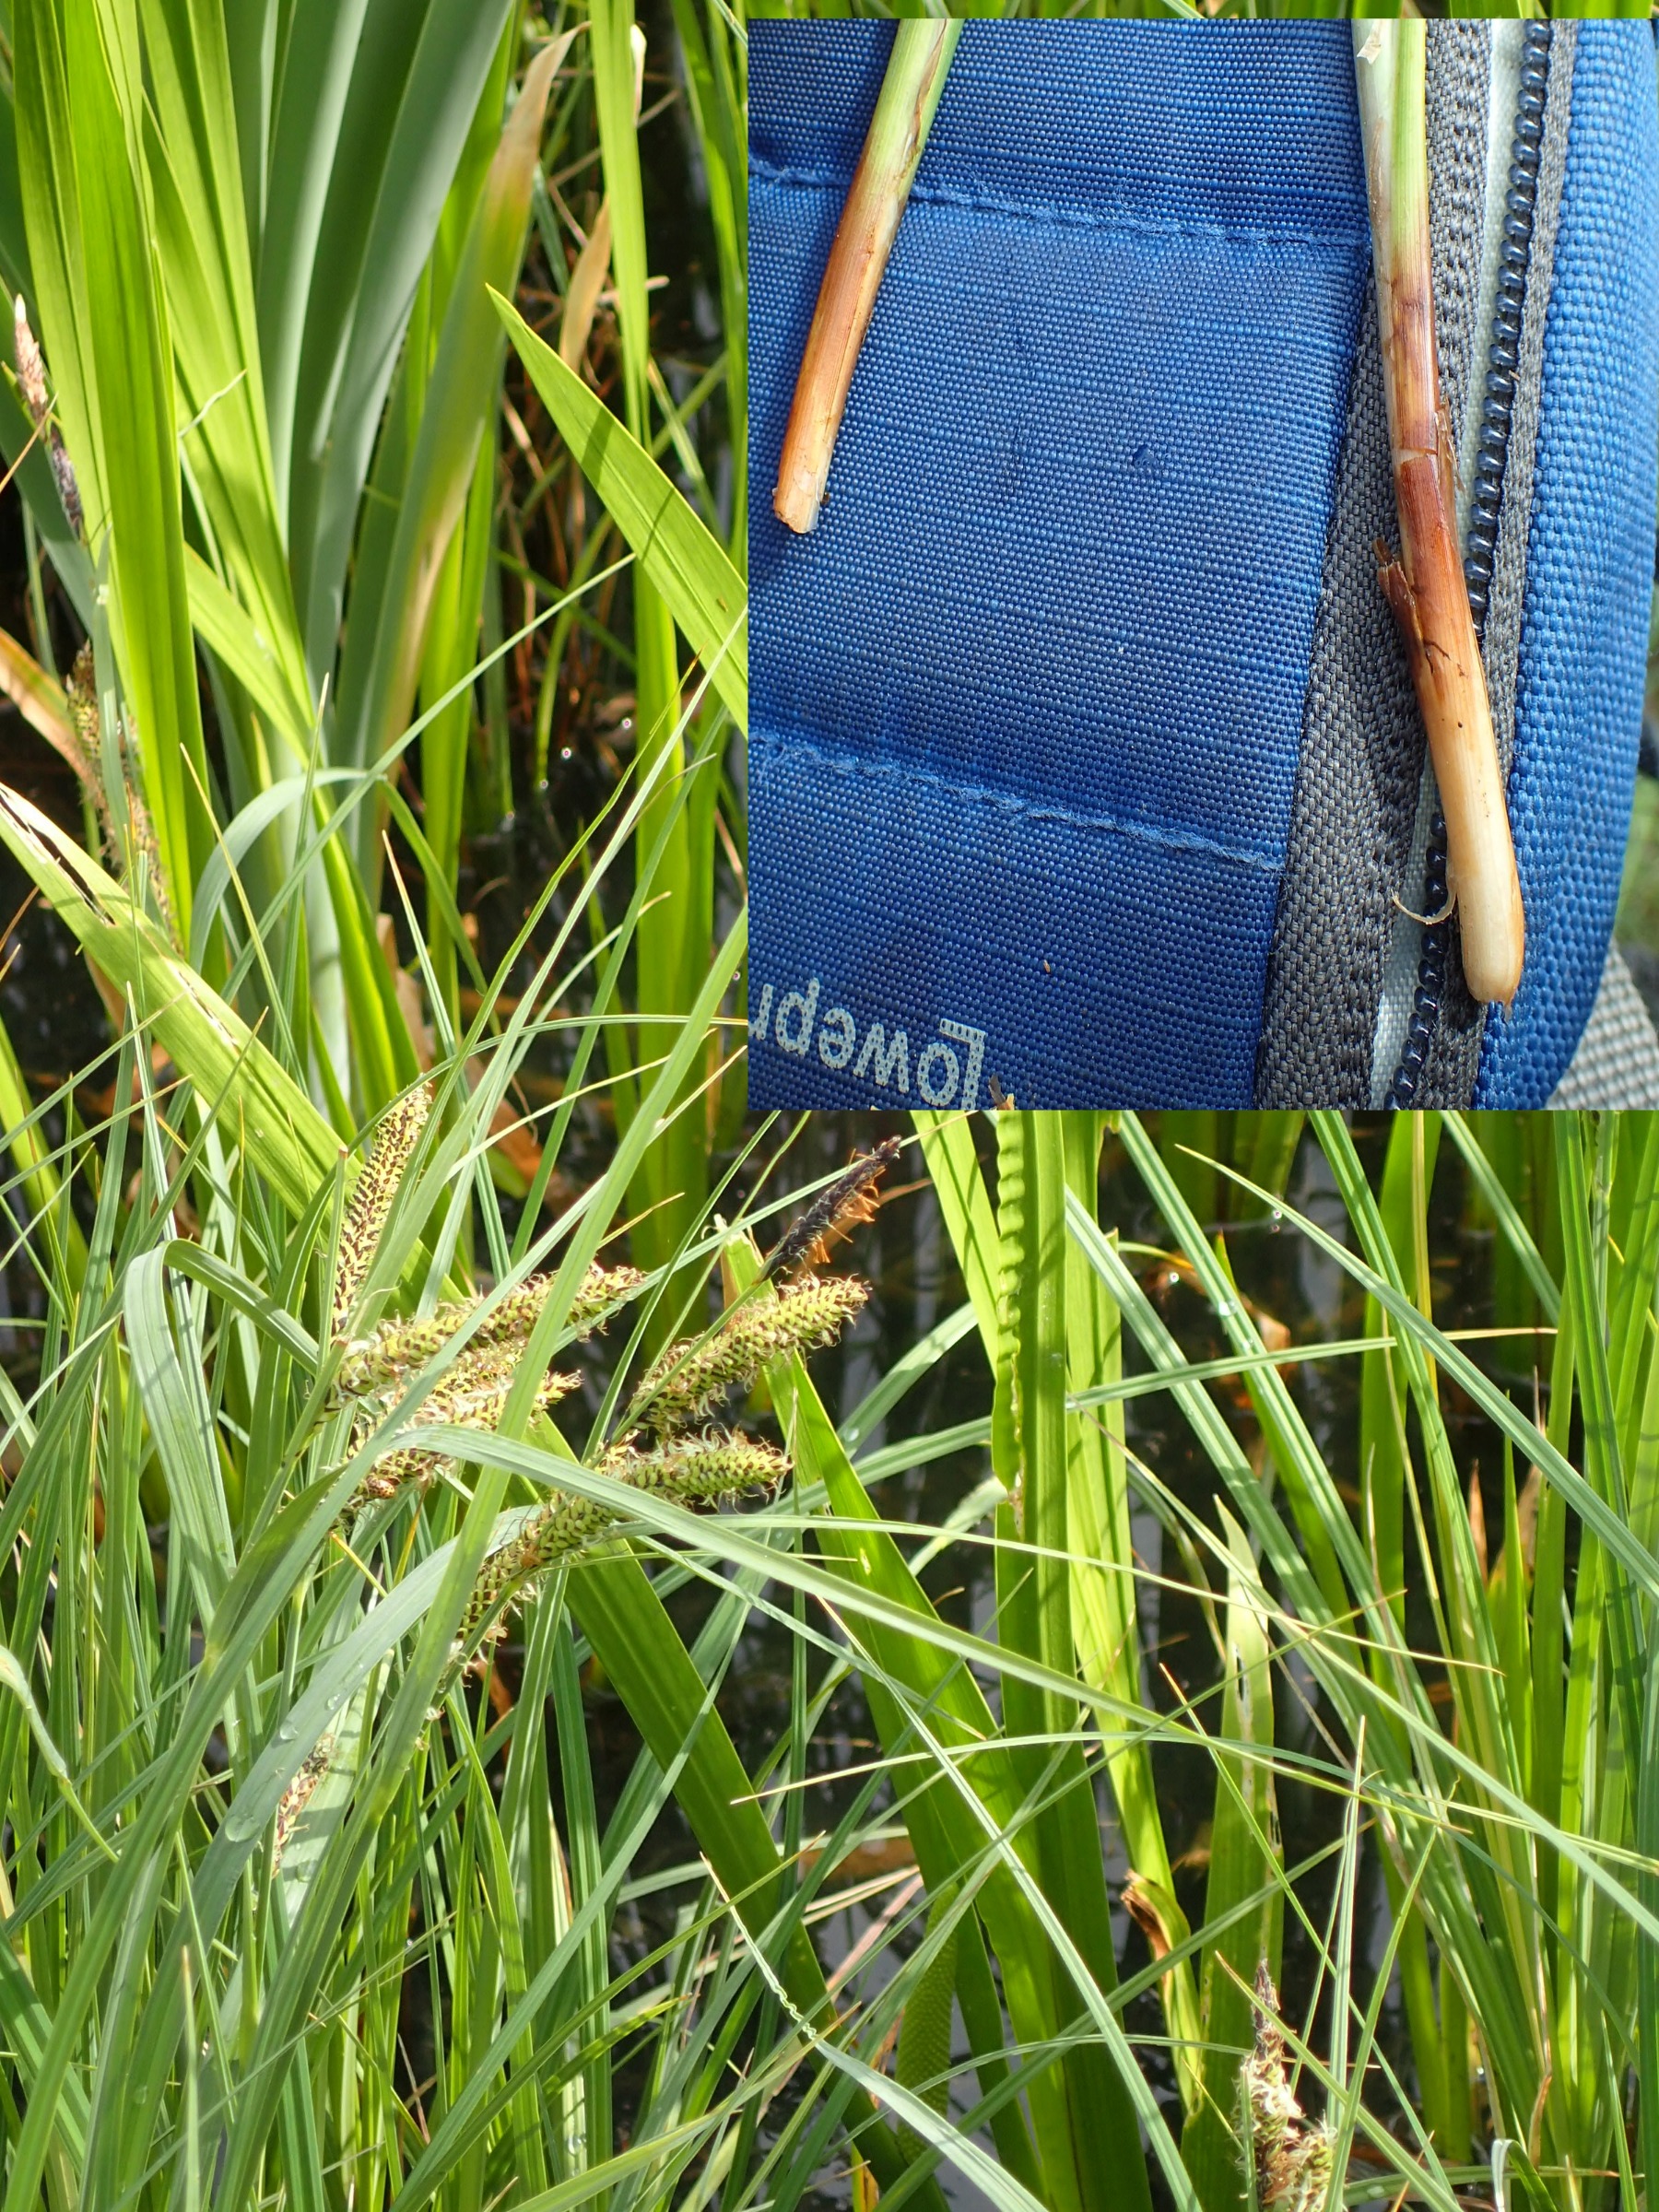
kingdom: Plantae
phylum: Tracheophyta
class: Liliopsida
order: Poales
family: Cyperaceae
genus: Carex
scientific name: Carex rostrata
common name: Næb-star
